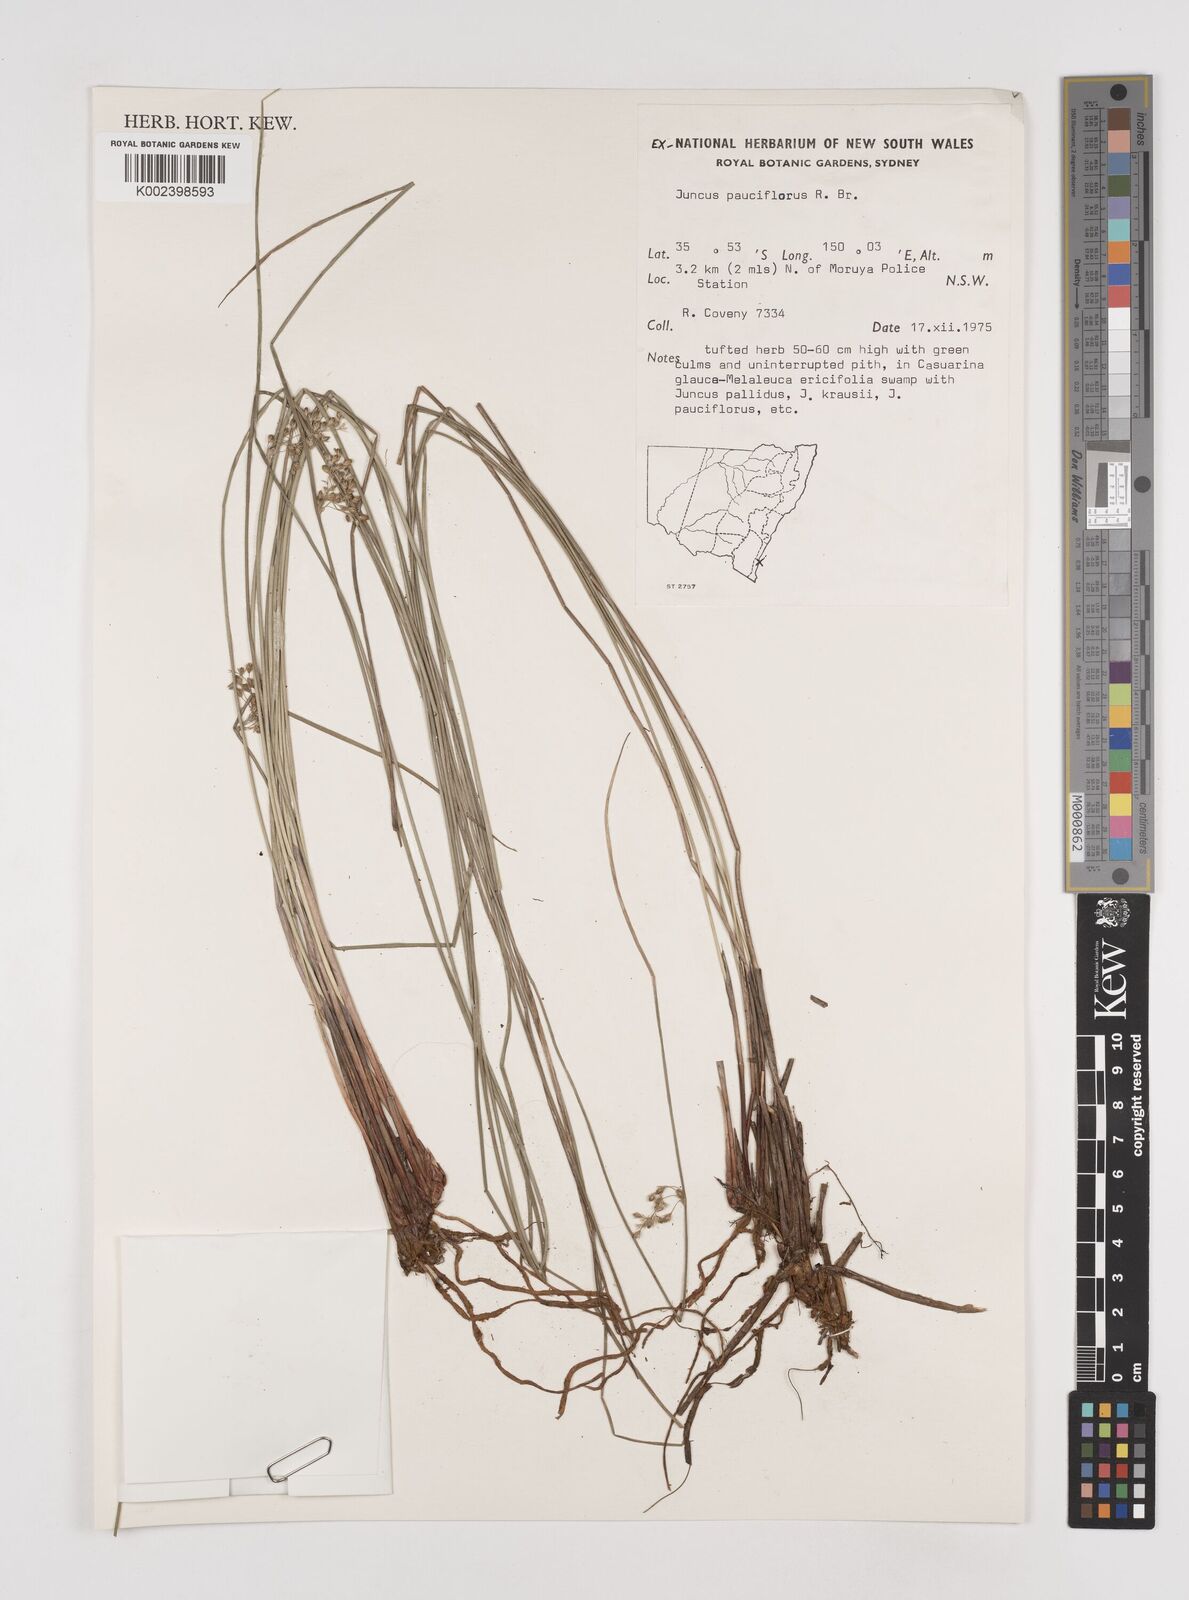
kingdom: Plantae
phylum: Tracheophyta
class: Liliopsida
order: Poales
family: Juncaceae
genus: Juncus
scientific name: Juncus pauciflorus
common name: Loose-flowered rush
